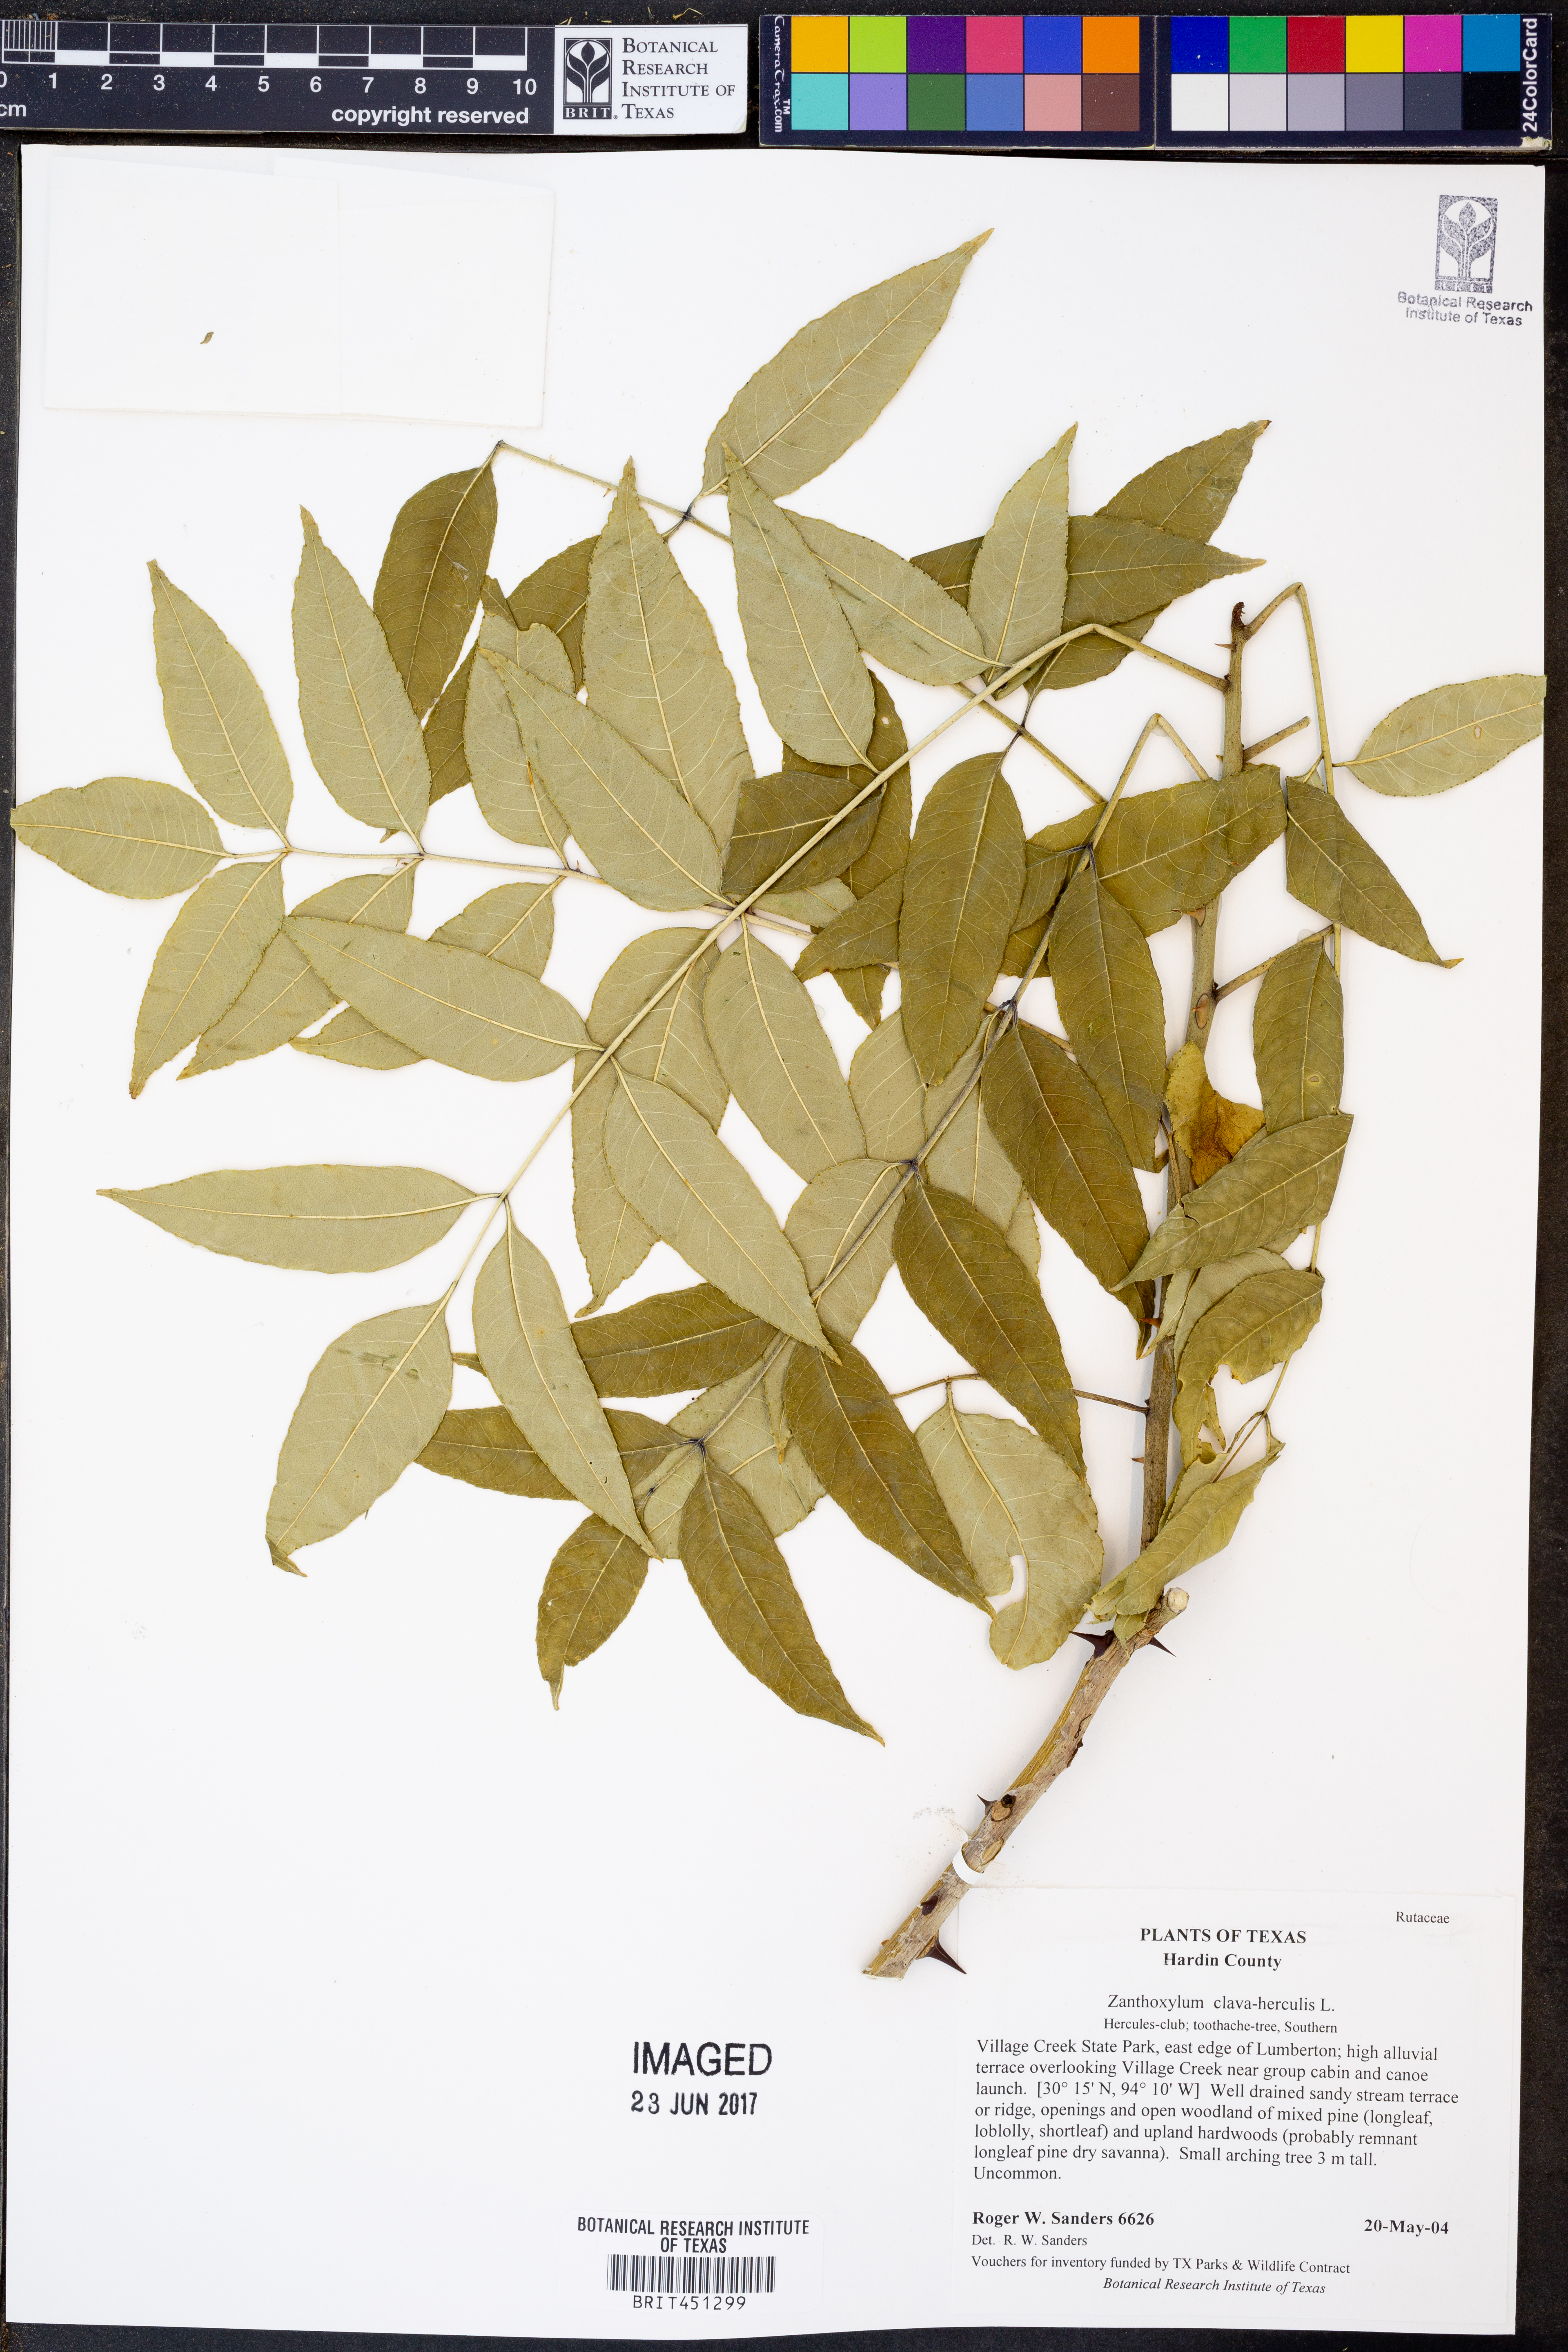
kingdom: Plantae
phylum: Tracheophyta
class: Magnoliopsida
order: Sapindales
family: Rutaceae
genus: Zanthoxylum
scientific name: Zanthoxylum avicennae
